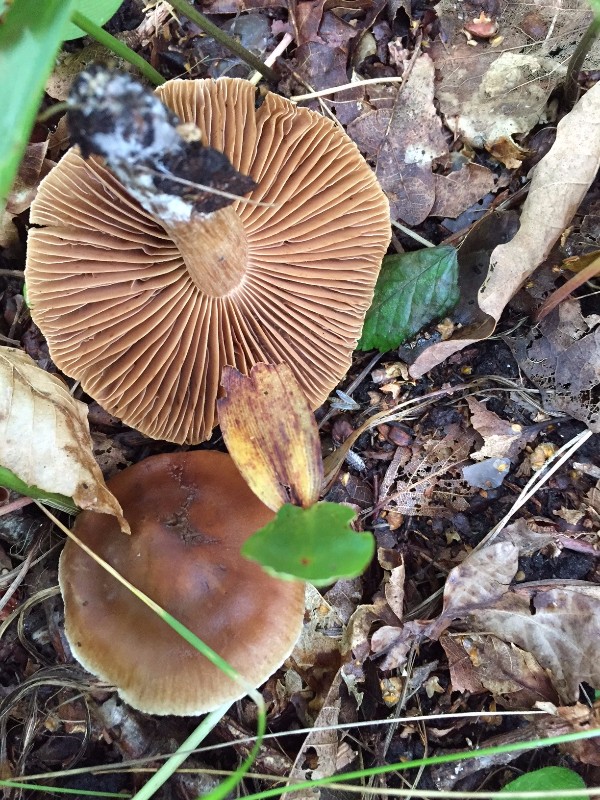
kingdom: Fungi
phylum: Basidiomycota
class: Agaricomycetes
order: Agaricales
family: Cortinariaceae
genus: Cortinarius
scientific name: Cortinarius
